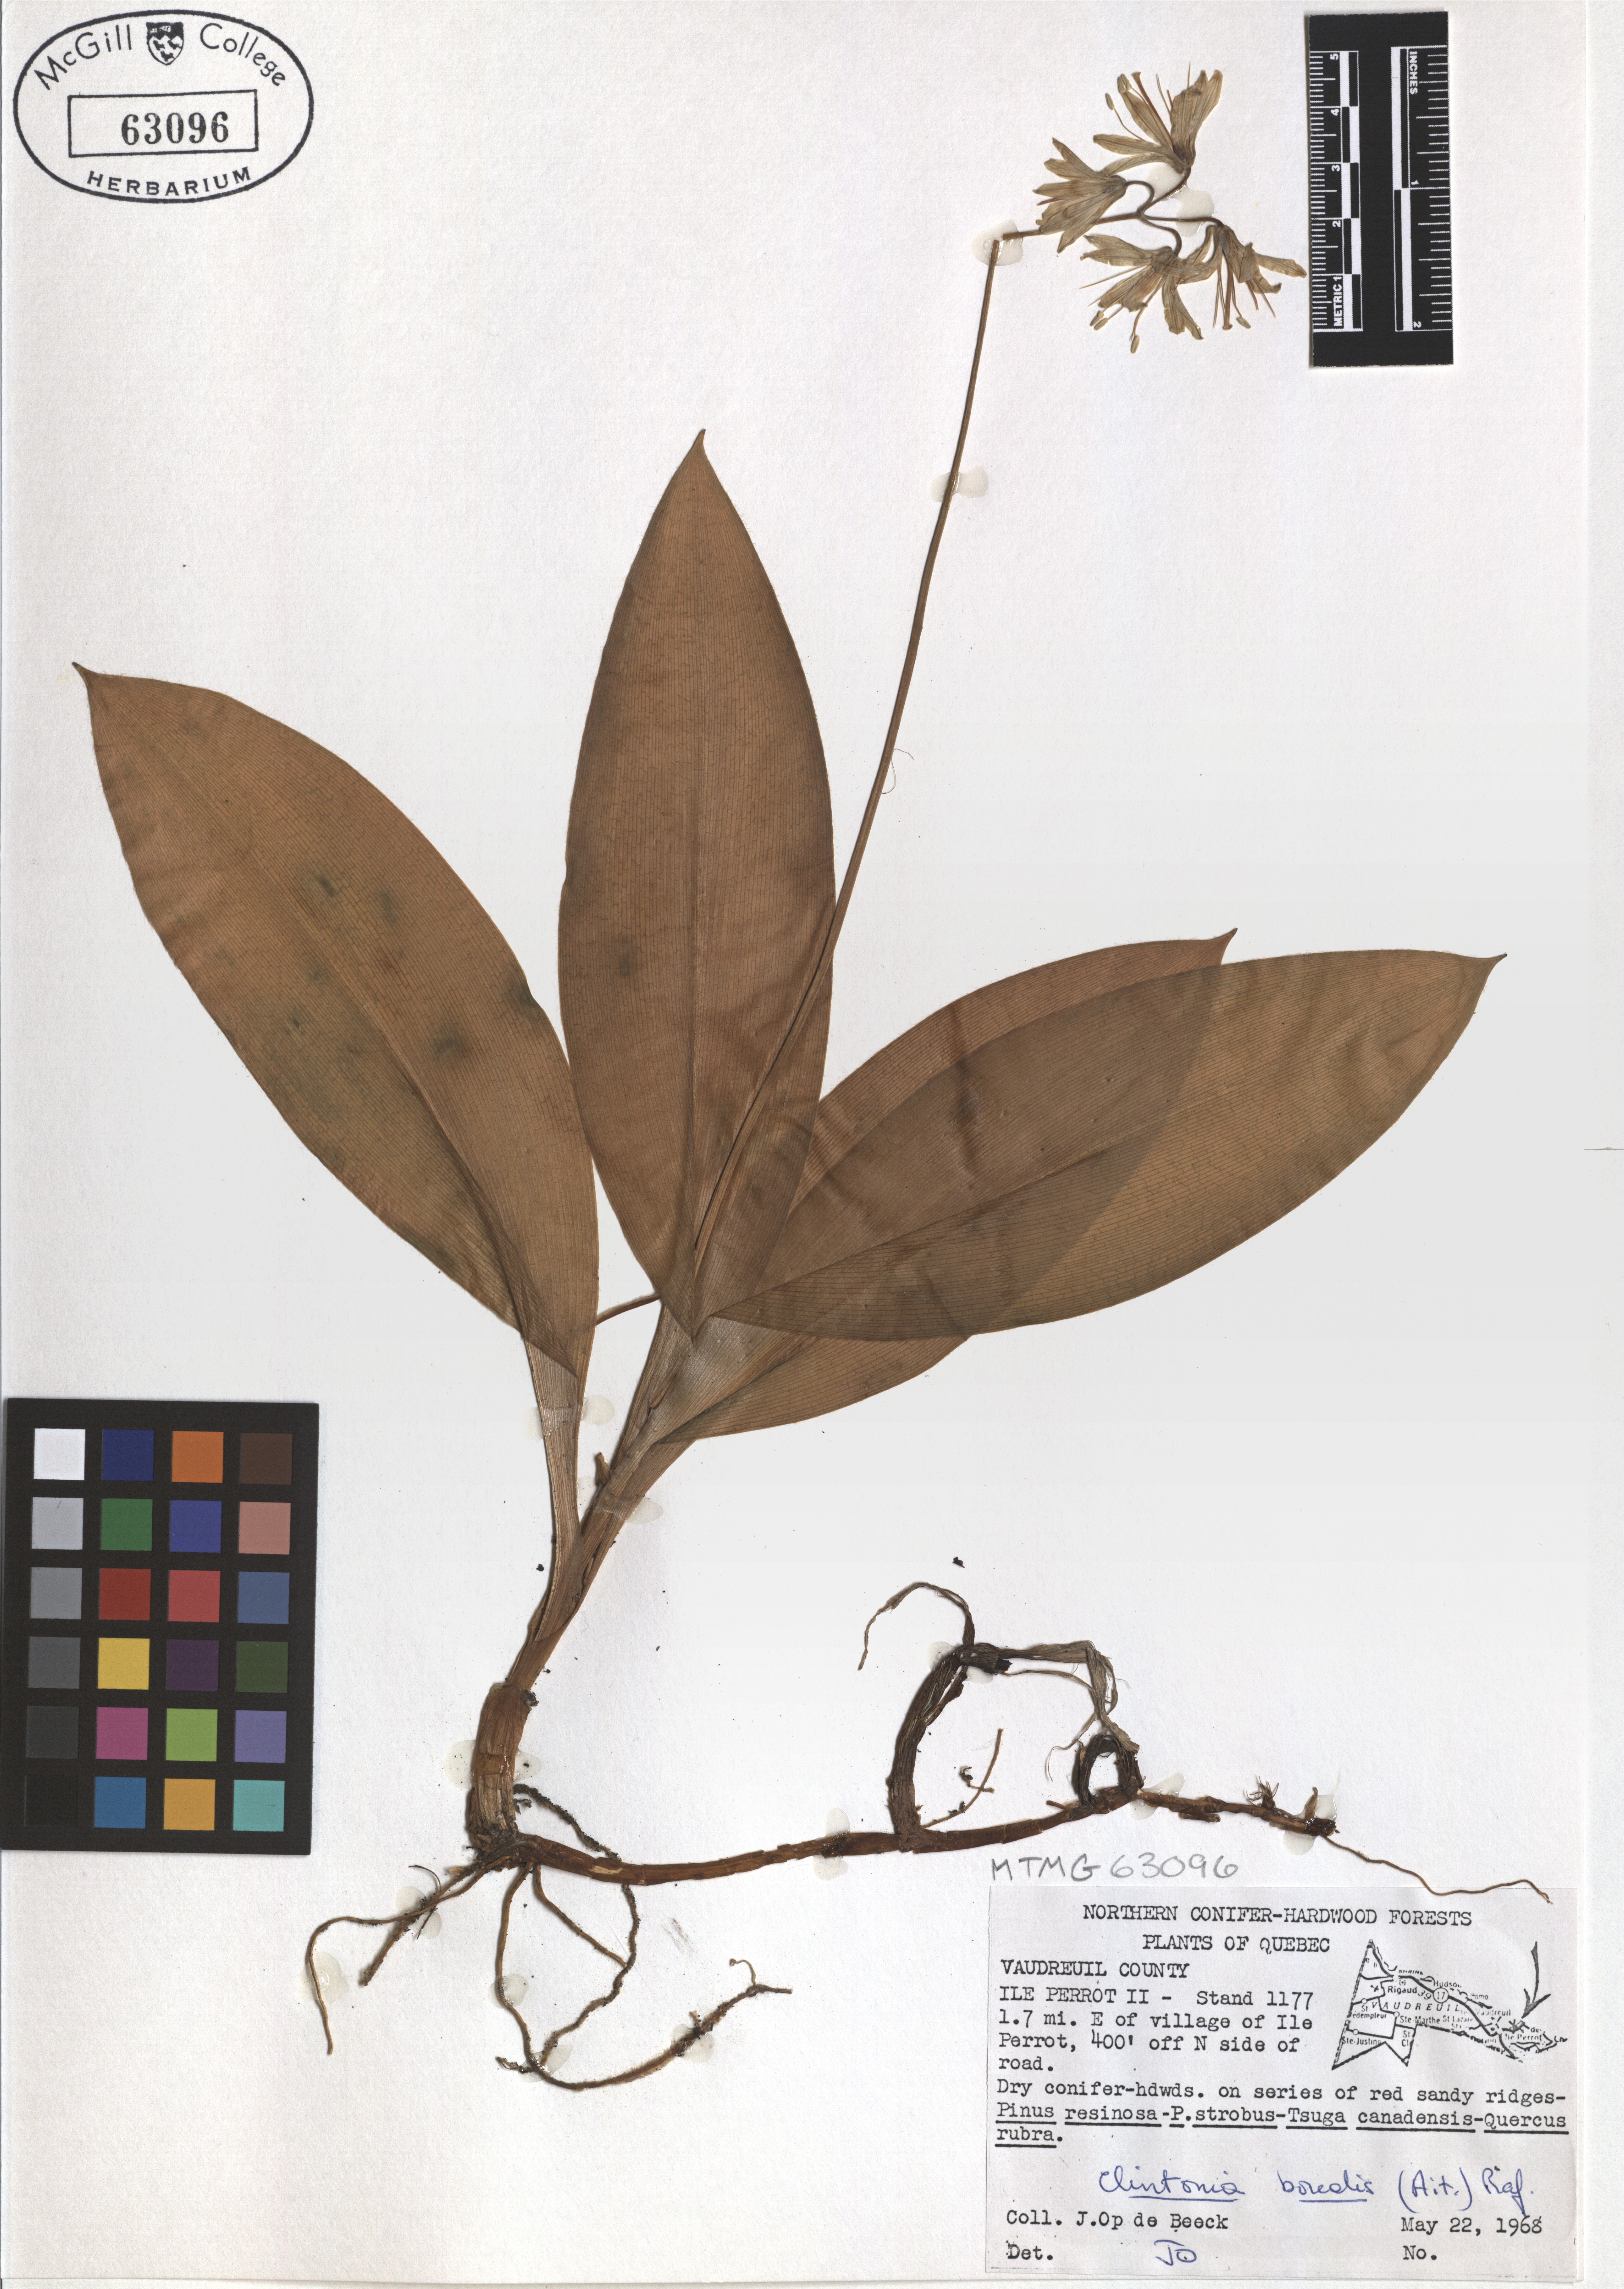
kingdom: Plantae
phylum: Tracheophyta
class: Liliopsida
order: Liliales
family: Liliaceae
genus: Clintonia
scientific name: Clintonia borealis
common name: Yellow clintonia
